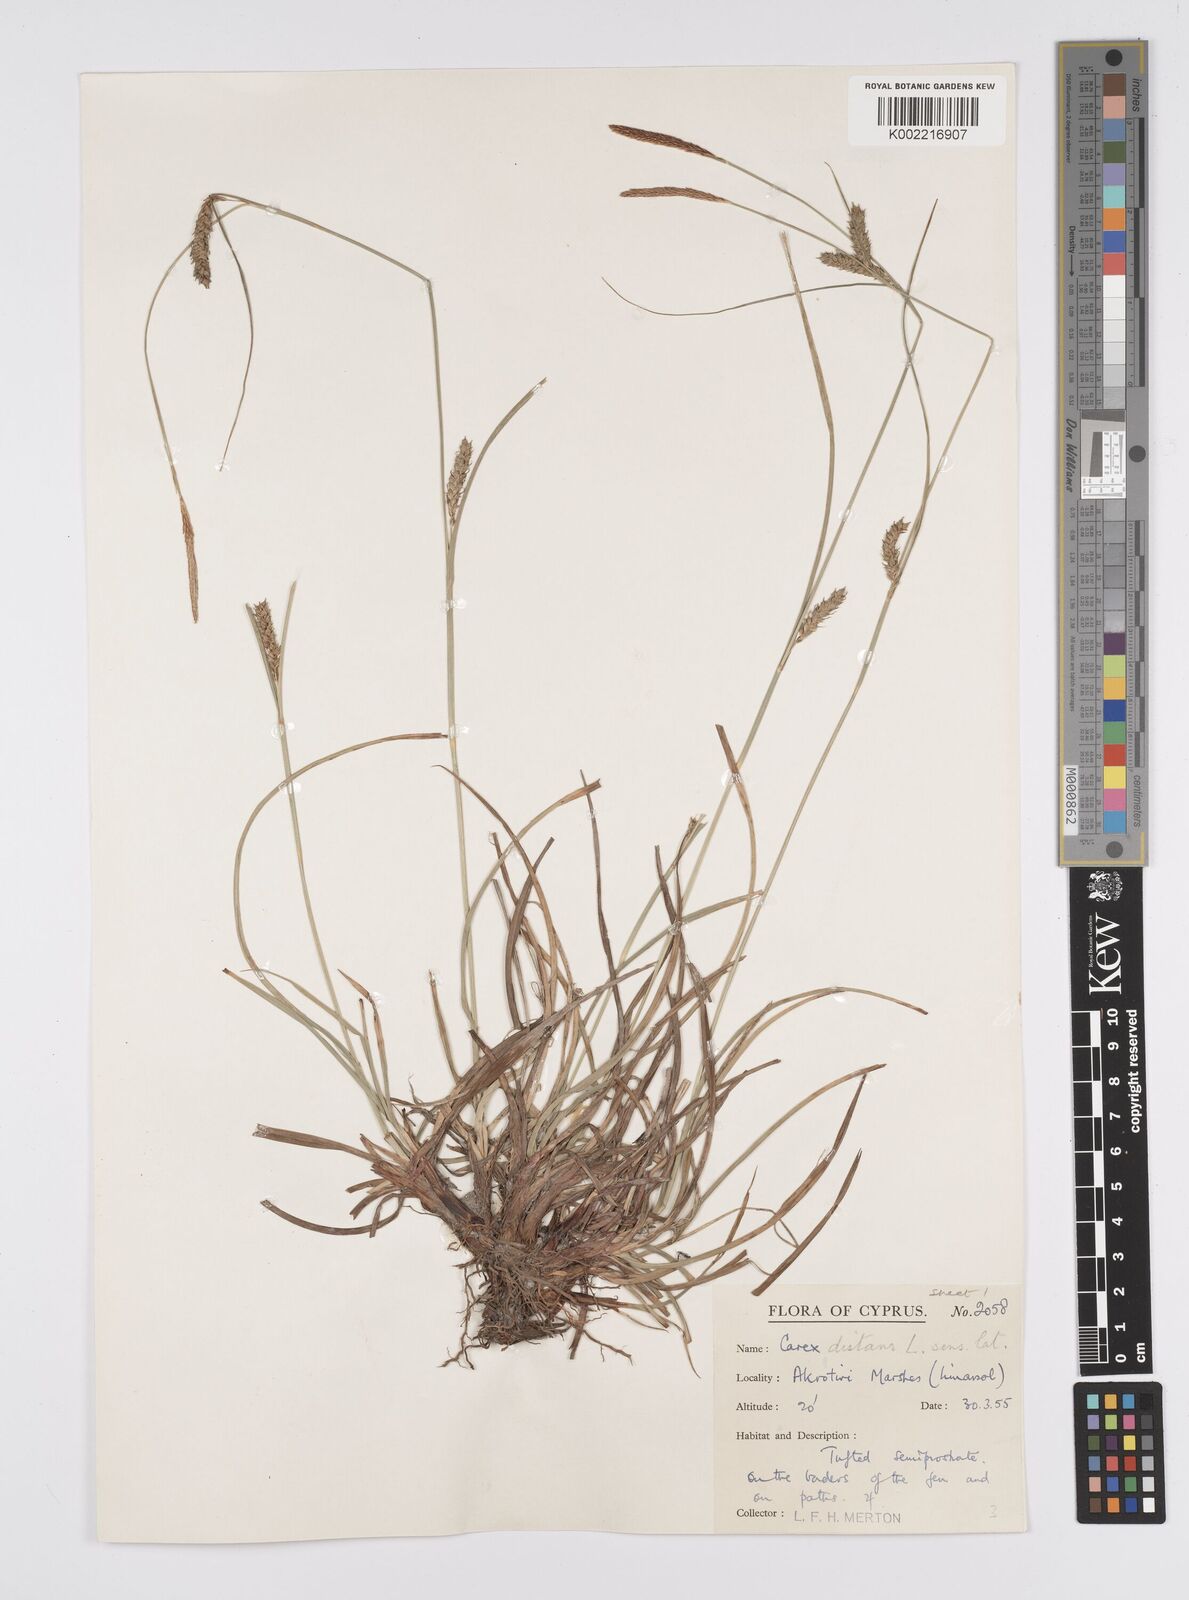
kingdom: Plantae
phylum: Tracheophyta
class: Liliopsida
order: Poales
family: Cyperaceae
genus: Carex
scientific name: Carex distans
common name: Distant sedge
